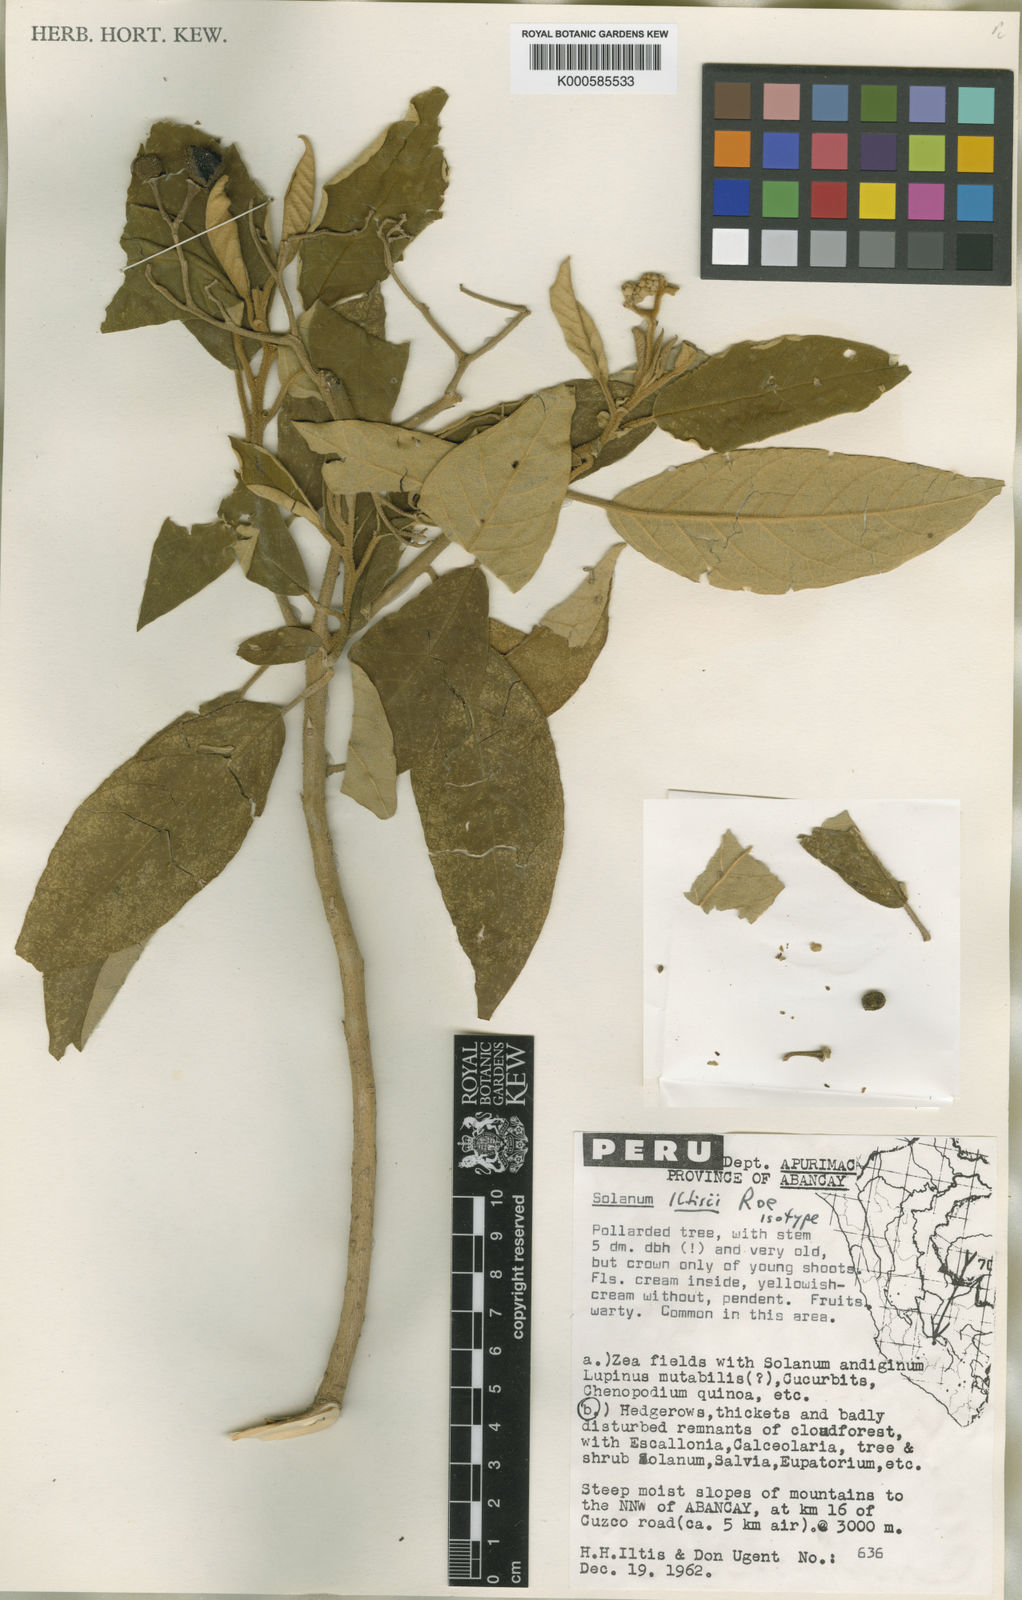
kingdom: Plantae
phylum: Tracheophyta
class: Magnoliopsida
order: Solanales
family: Solanaceae
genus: Solanum
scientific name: Solanum iltisii
